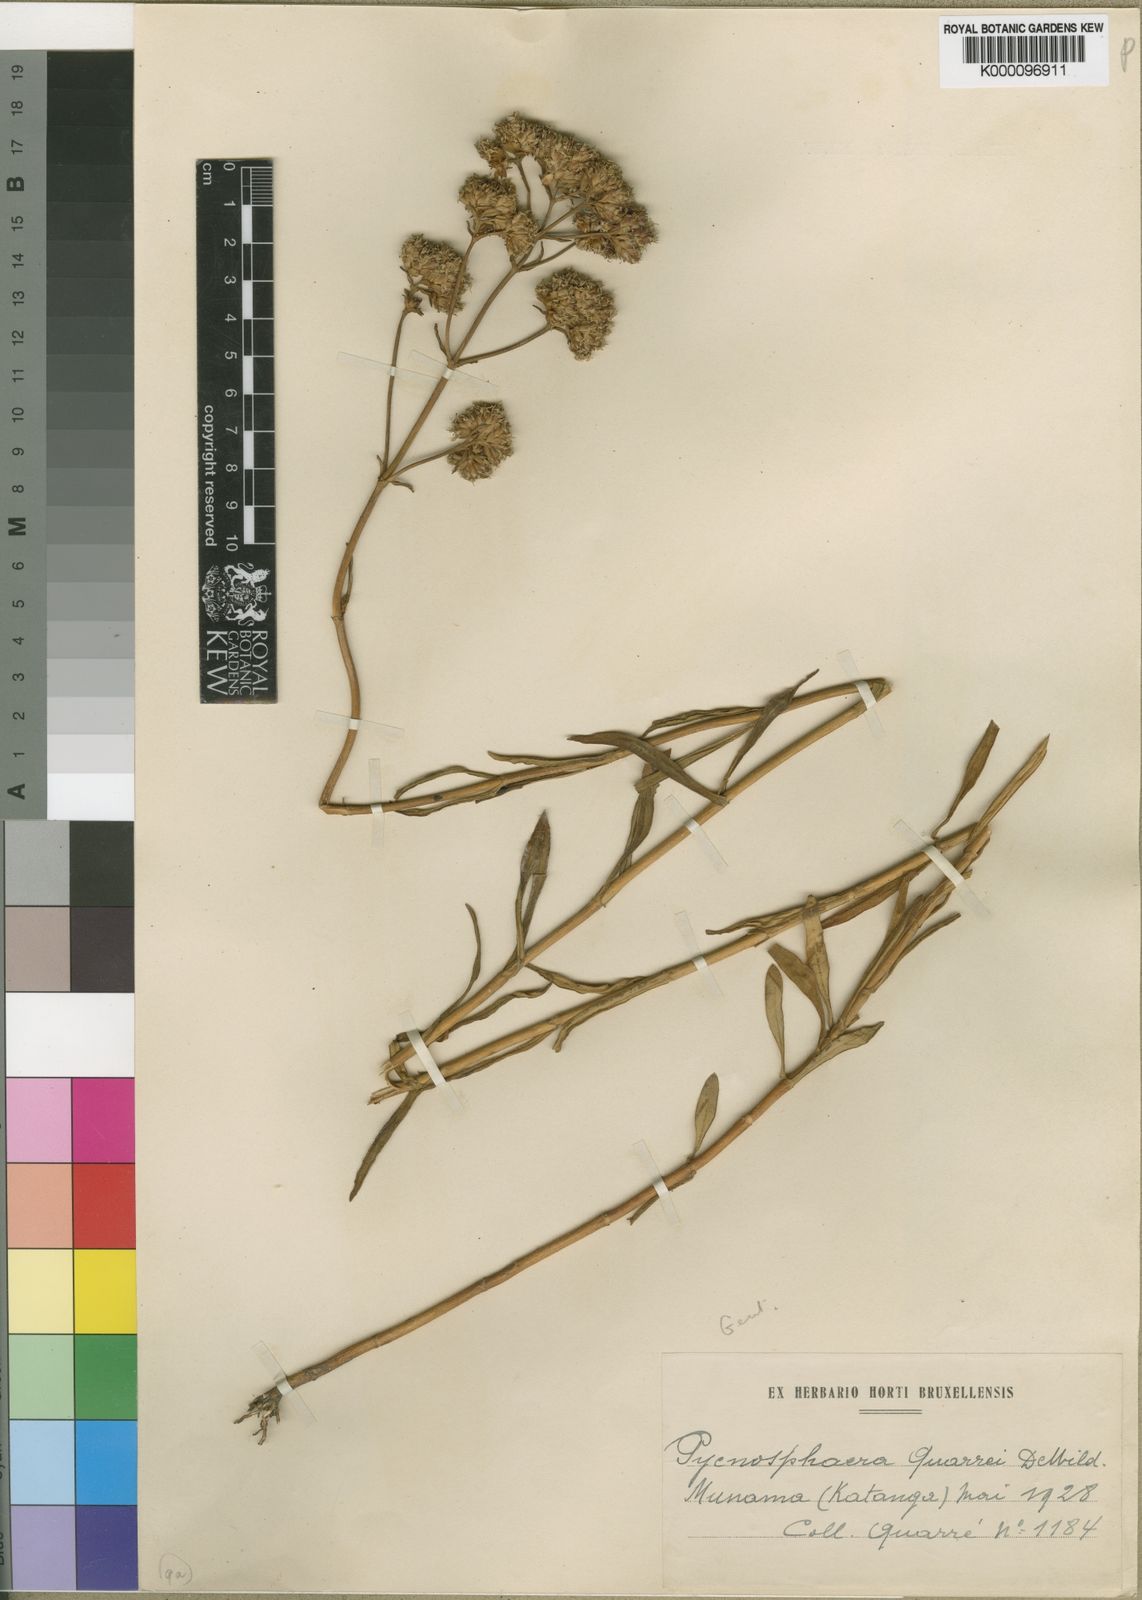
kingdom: Plantae
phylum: Tracheophyta
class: Magnoliopsida
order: Gentianales
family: Gentianaceae
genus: Pycnosphaera
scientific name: Pycnosphaera buchananii
